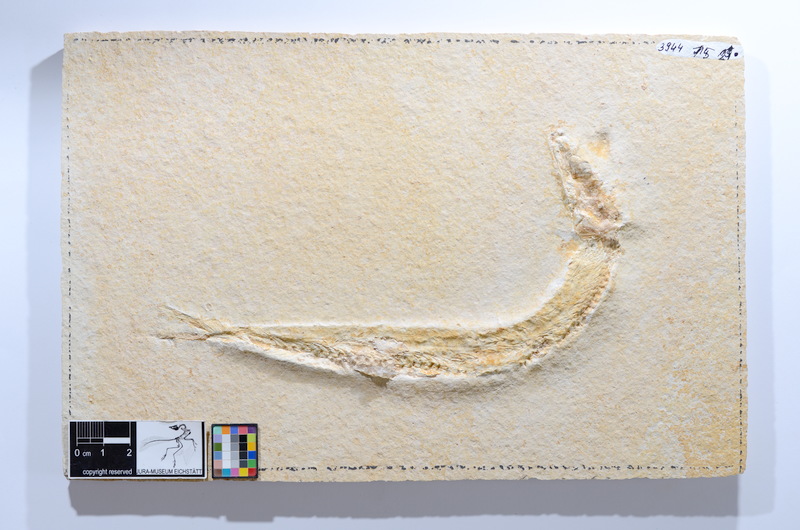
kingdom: Animalia
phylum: Chordata
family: Ascalaboidae
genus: Tharsis
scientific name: Tharsis dubius
